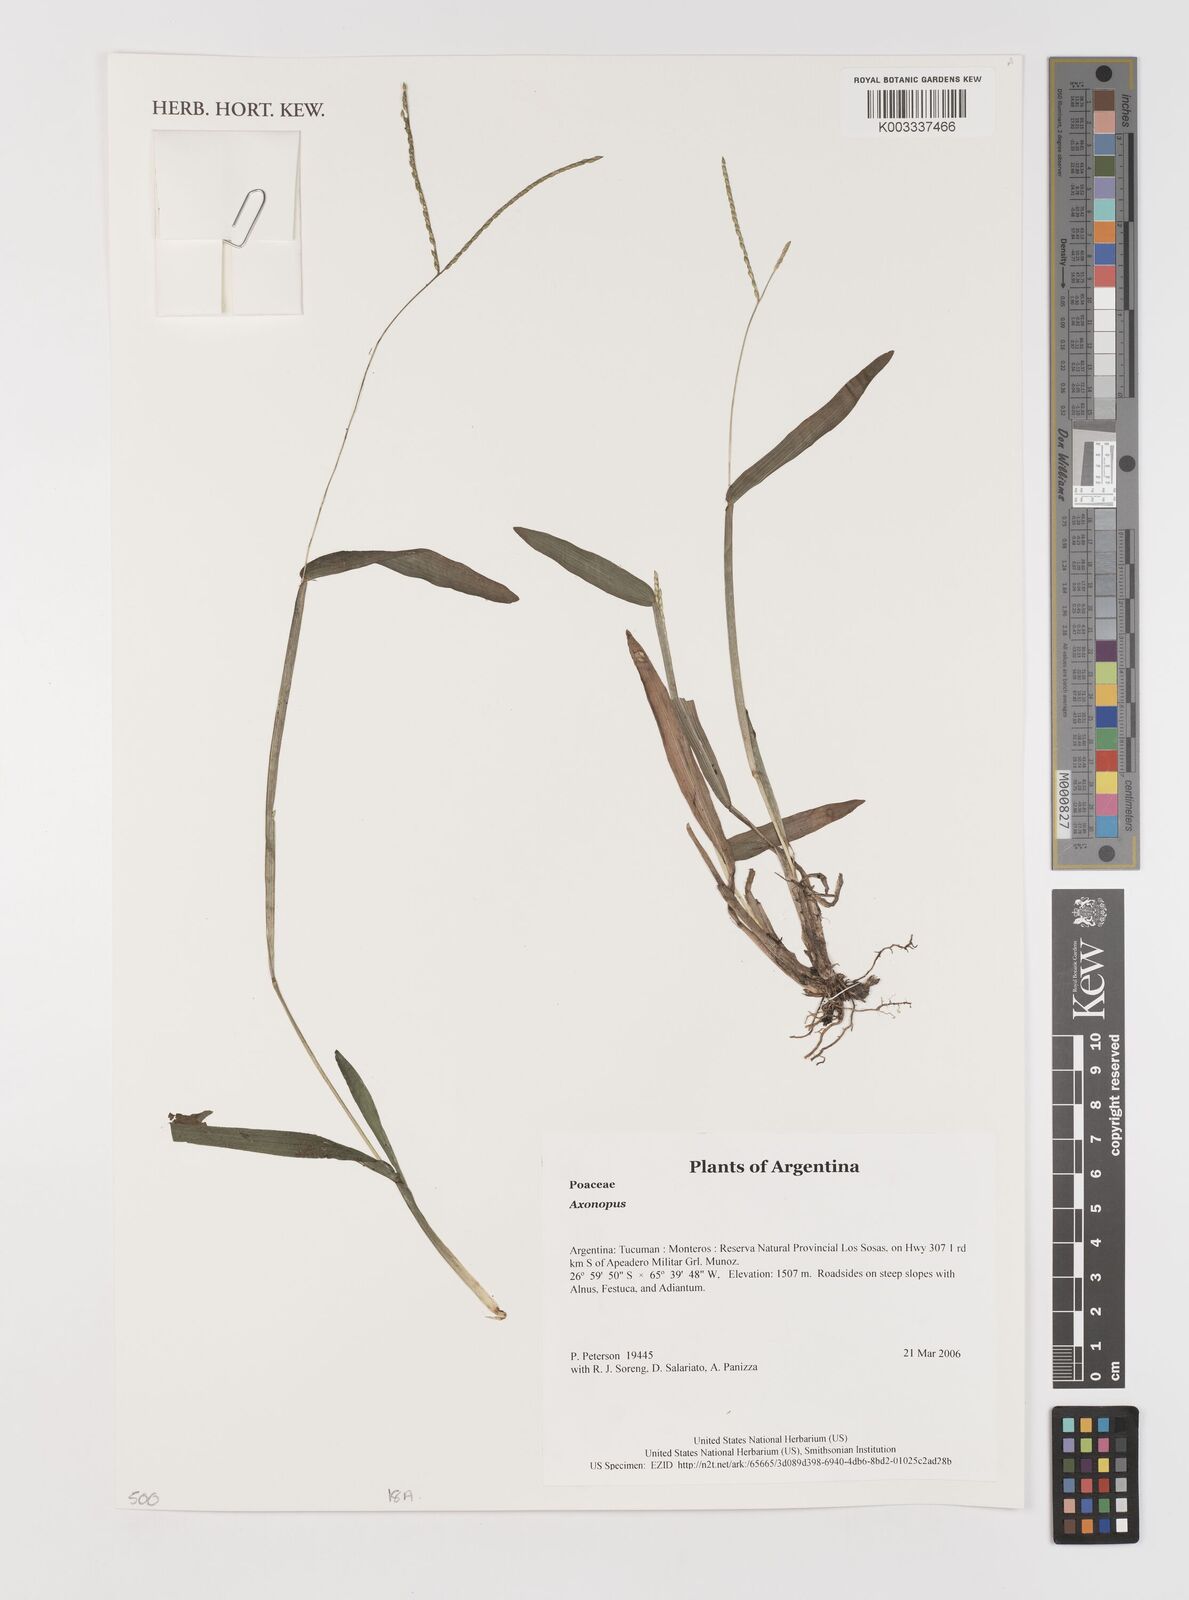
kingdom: Plantae
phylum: Tracheophyta
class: Liliopsida
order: Poales
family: Poaceae
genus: Axonopus
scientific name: Axonopus
